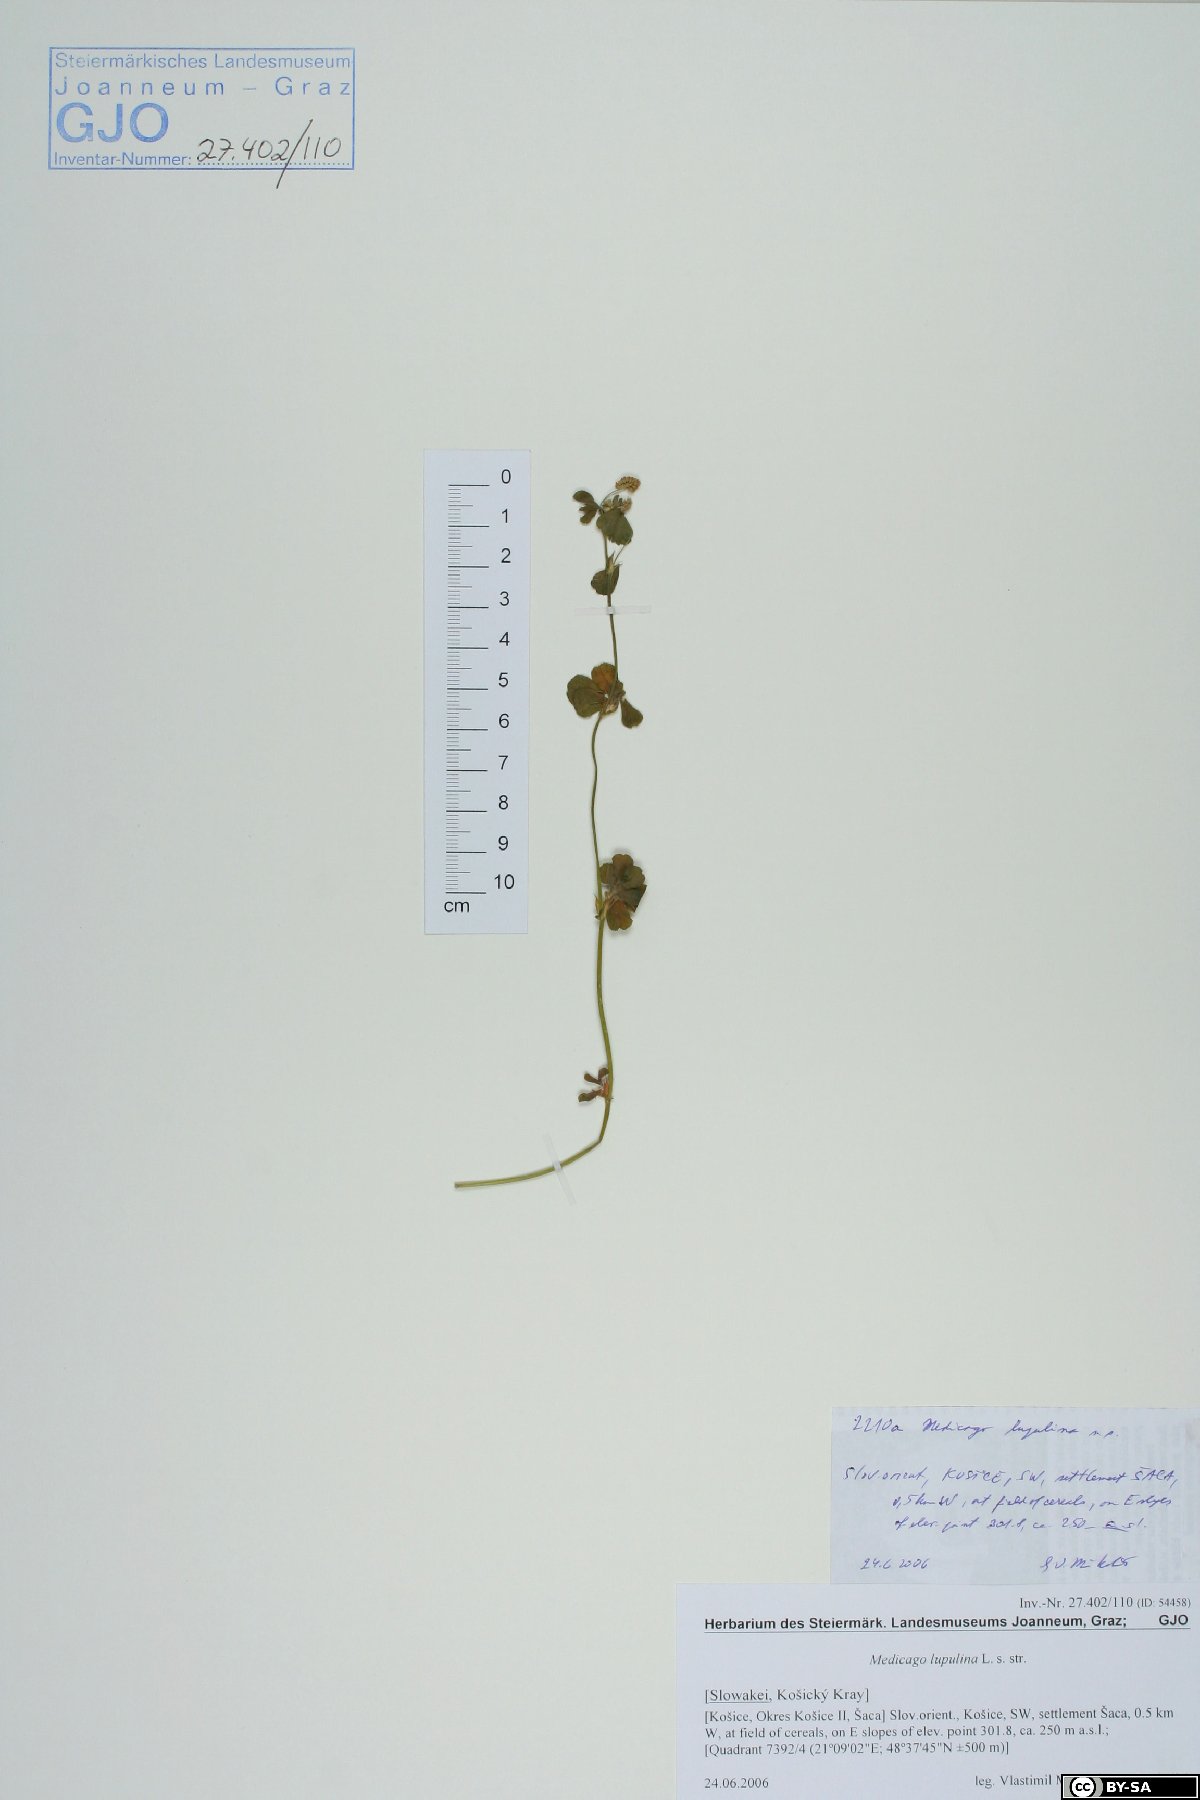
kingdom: Plantae
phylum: Tracheophyta
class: Magnoliopsida
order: Fabales
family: Fabaceae
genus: Medicago
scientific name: Medicago lupulina
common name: Black medick
